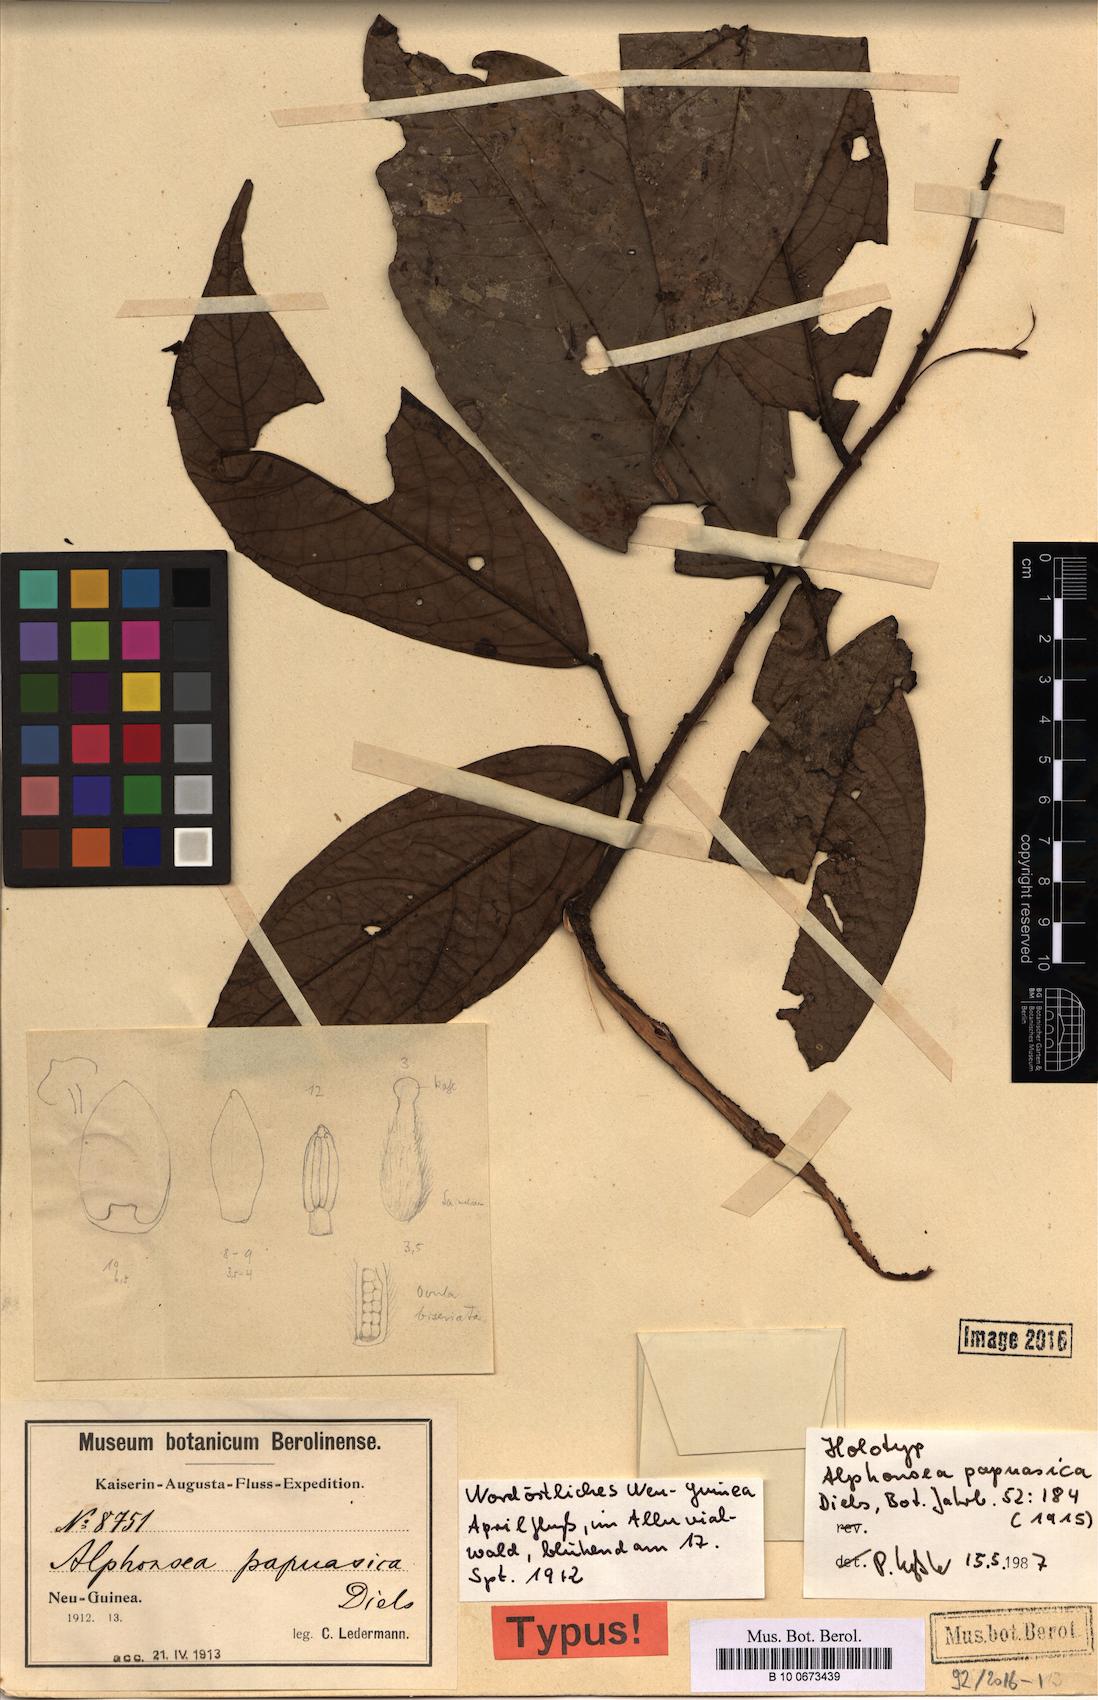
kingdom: Plantae
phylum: Tracheophyta
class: Magnoliopsida
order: Magnoliales
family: Annonaceae
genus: Alphonsea
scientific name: Alphonsea papuasica
